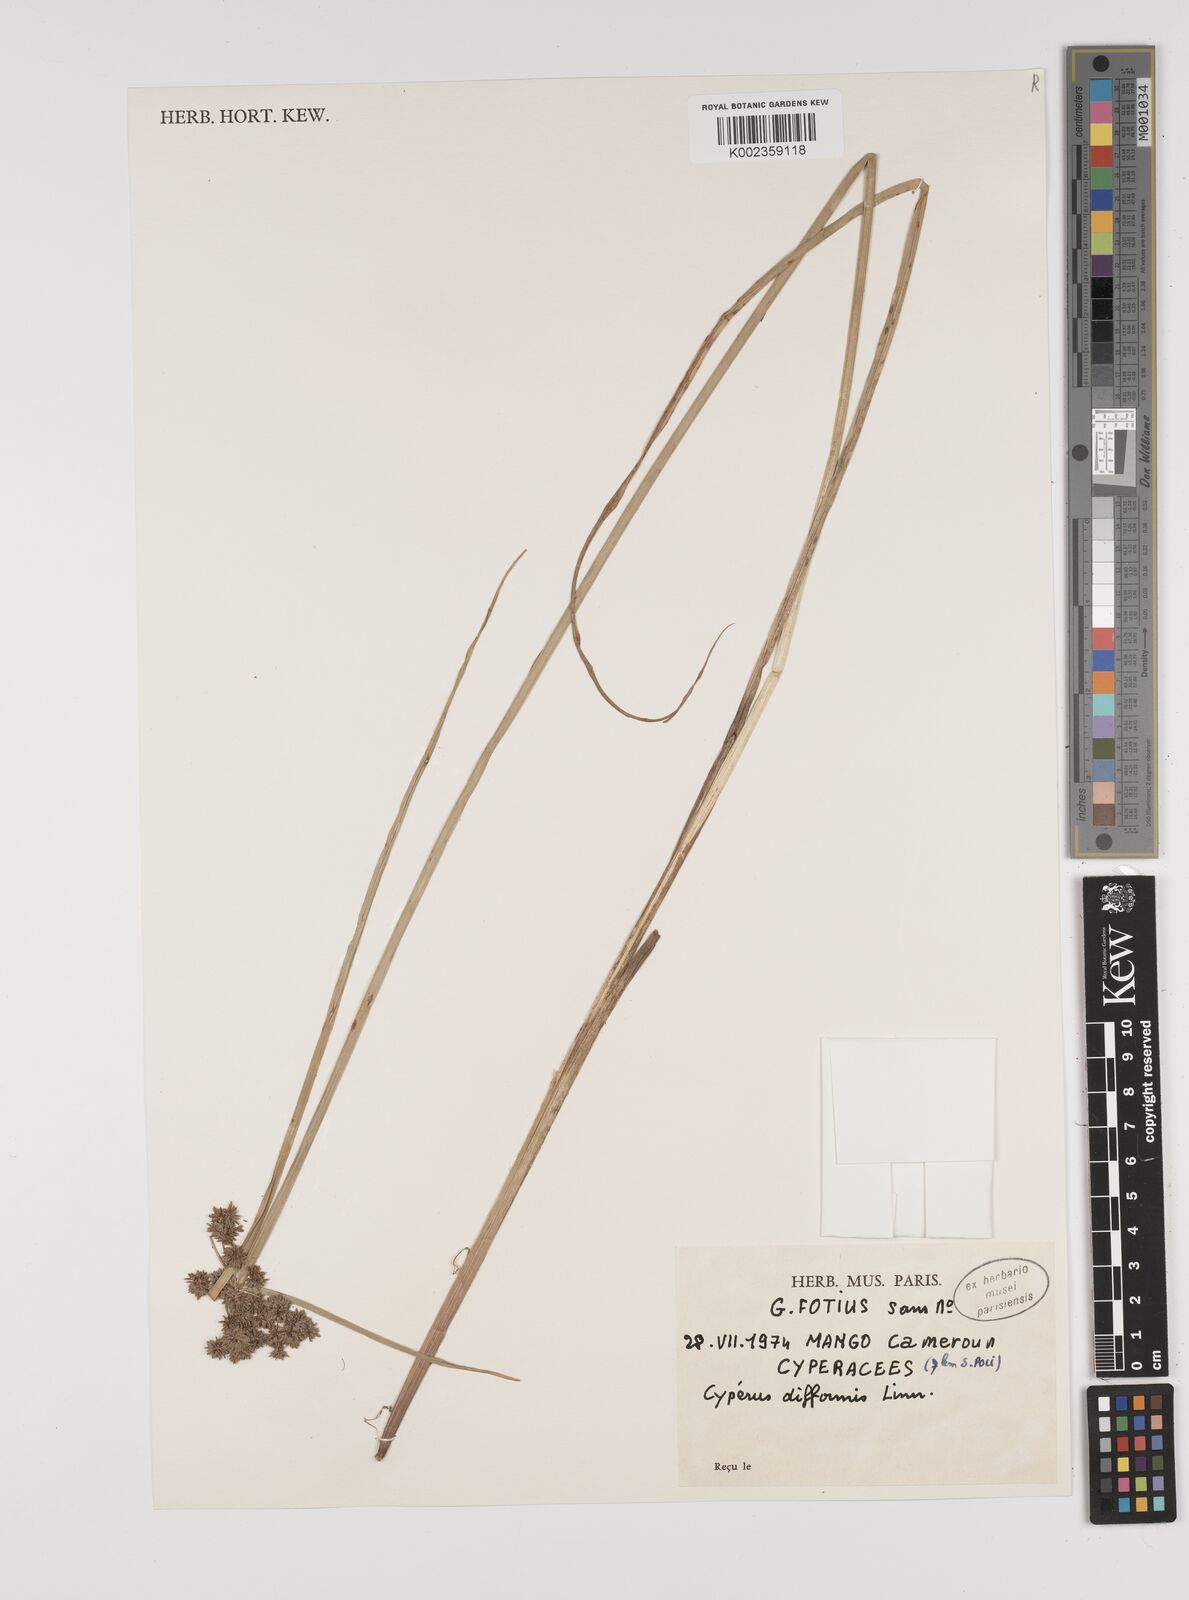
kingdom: Plantae
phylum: Tracheophyta
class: Liliopsida
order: Poales
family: Cyperaceae
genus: Cyperus
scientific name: Cyperus difformis
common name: Variable flatsedge
